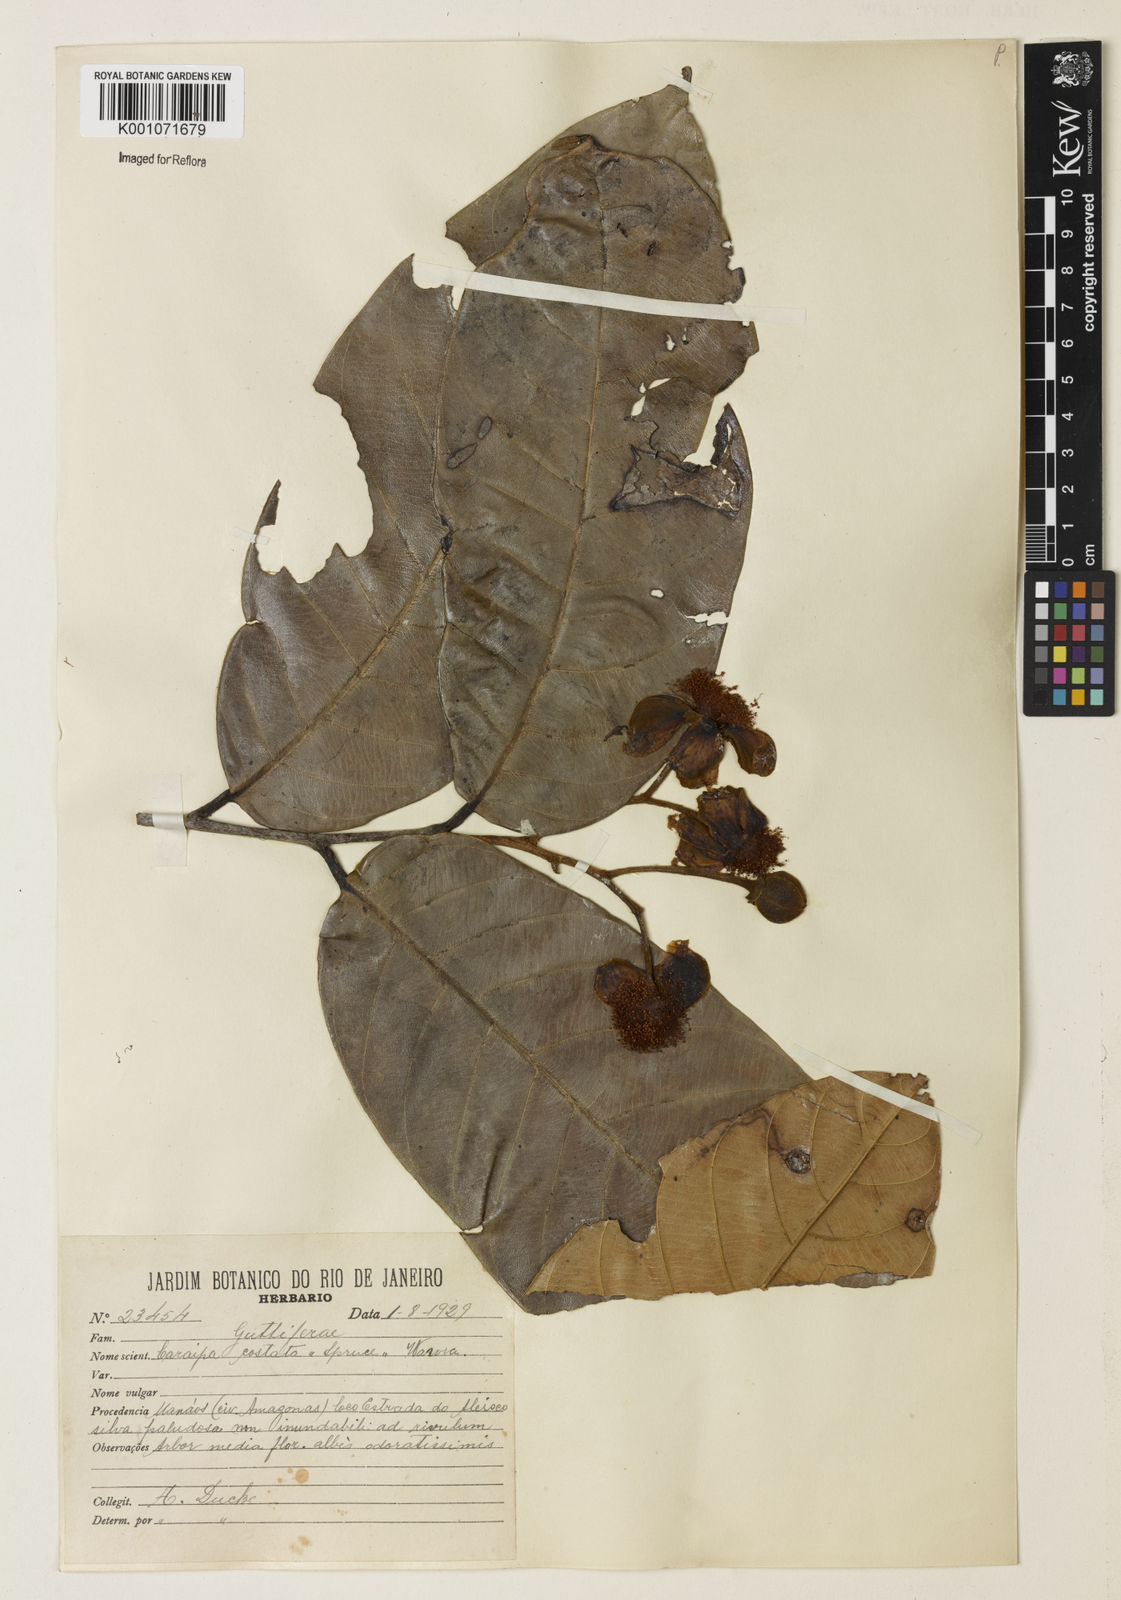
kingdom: Plantae
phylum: Tracheophyta
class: Magnoliopsida
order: Malpighiales
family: Calophyllaceae
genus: Caraipa
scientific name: Caraipa costata
